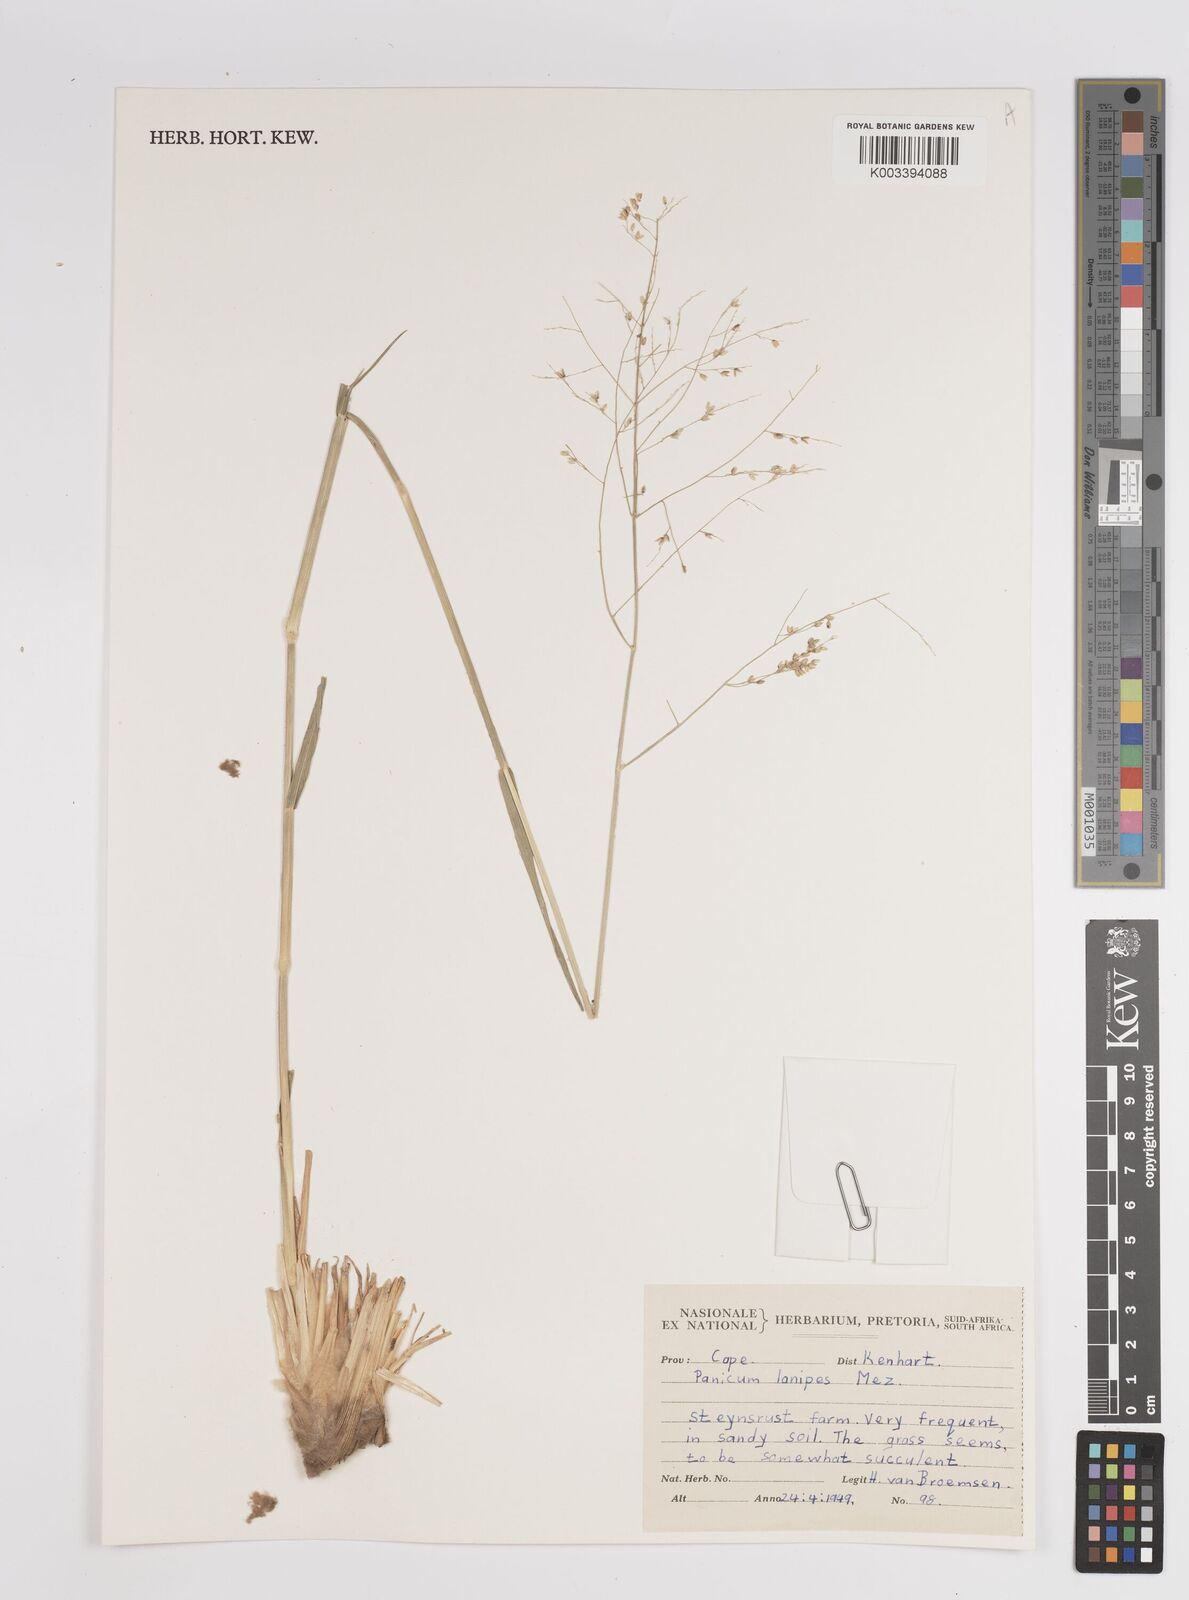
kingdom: Plantae
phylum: Tracheophyta
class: Liliopsida
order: Poales
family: Poaceae
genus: Panicum
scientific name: Panicum lanipes
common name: Wolvoet panicum
